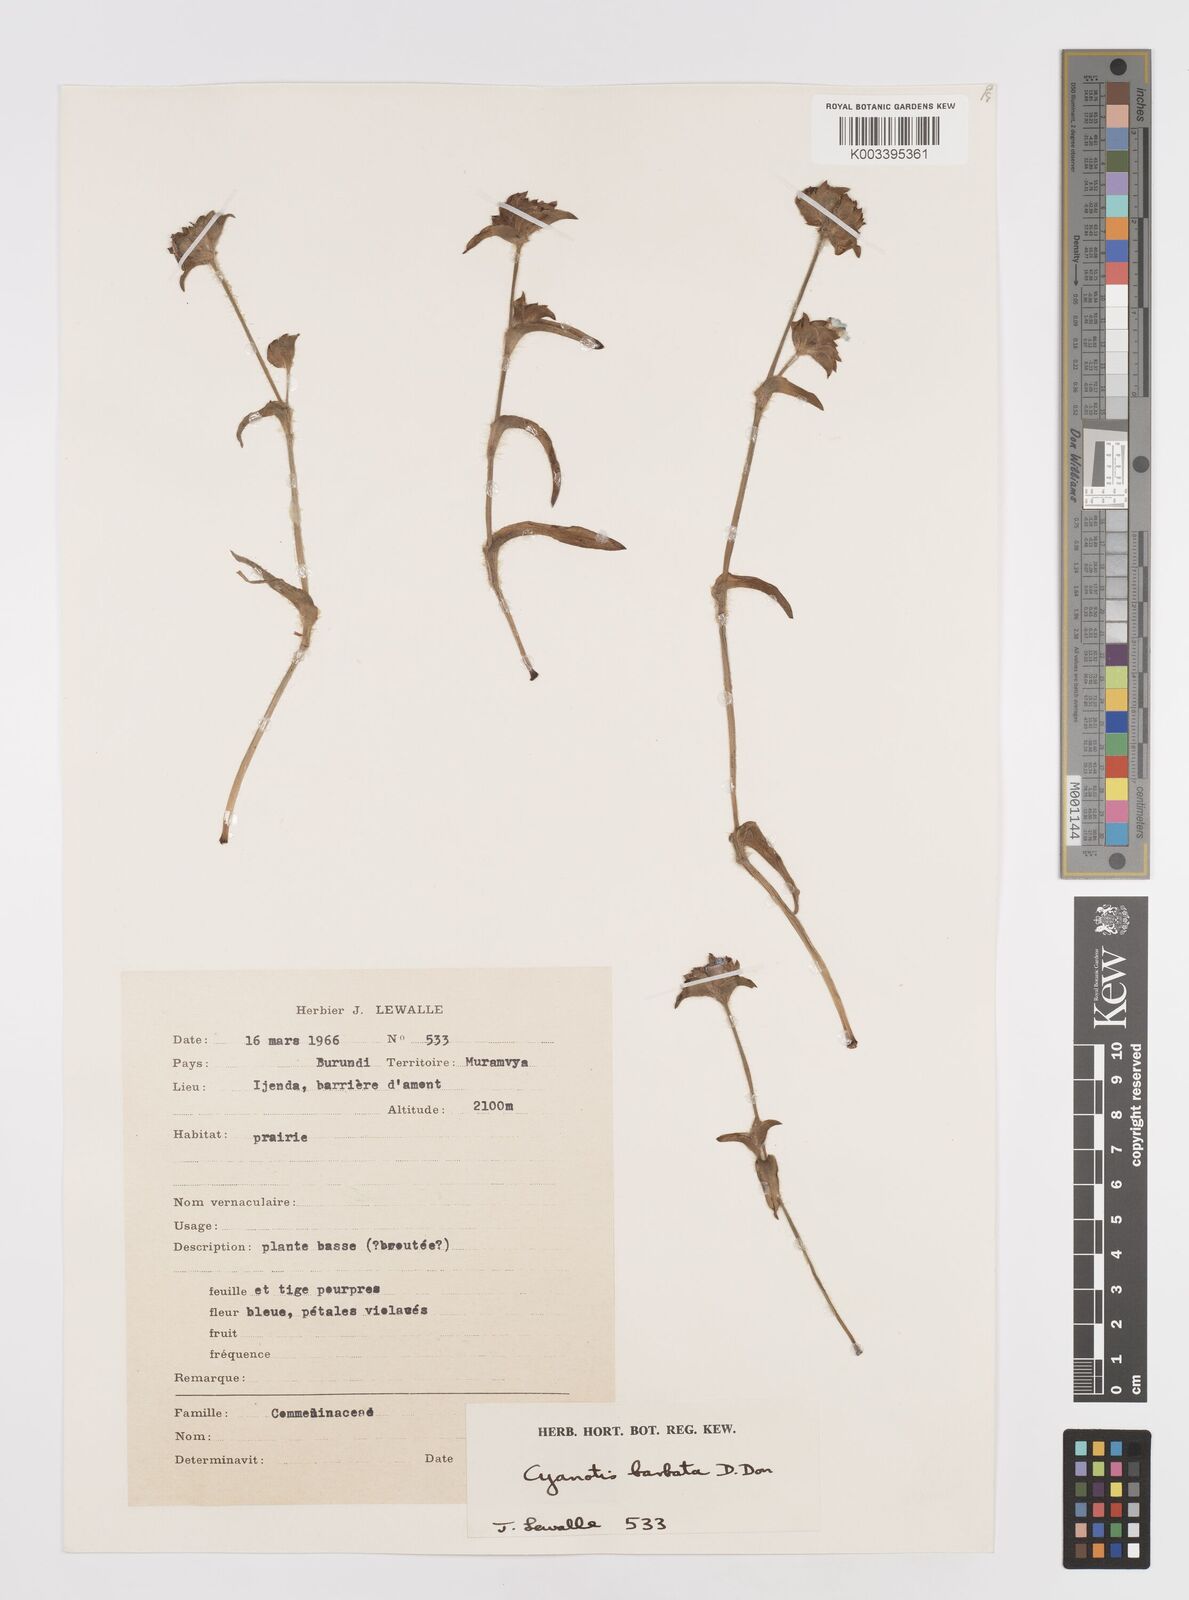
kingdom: Plantae
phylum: Tracheophyta
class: Liliopsida
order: Commelinales
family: Commelinaceae
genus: Cyanotis
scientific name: Cyanotis vaga
